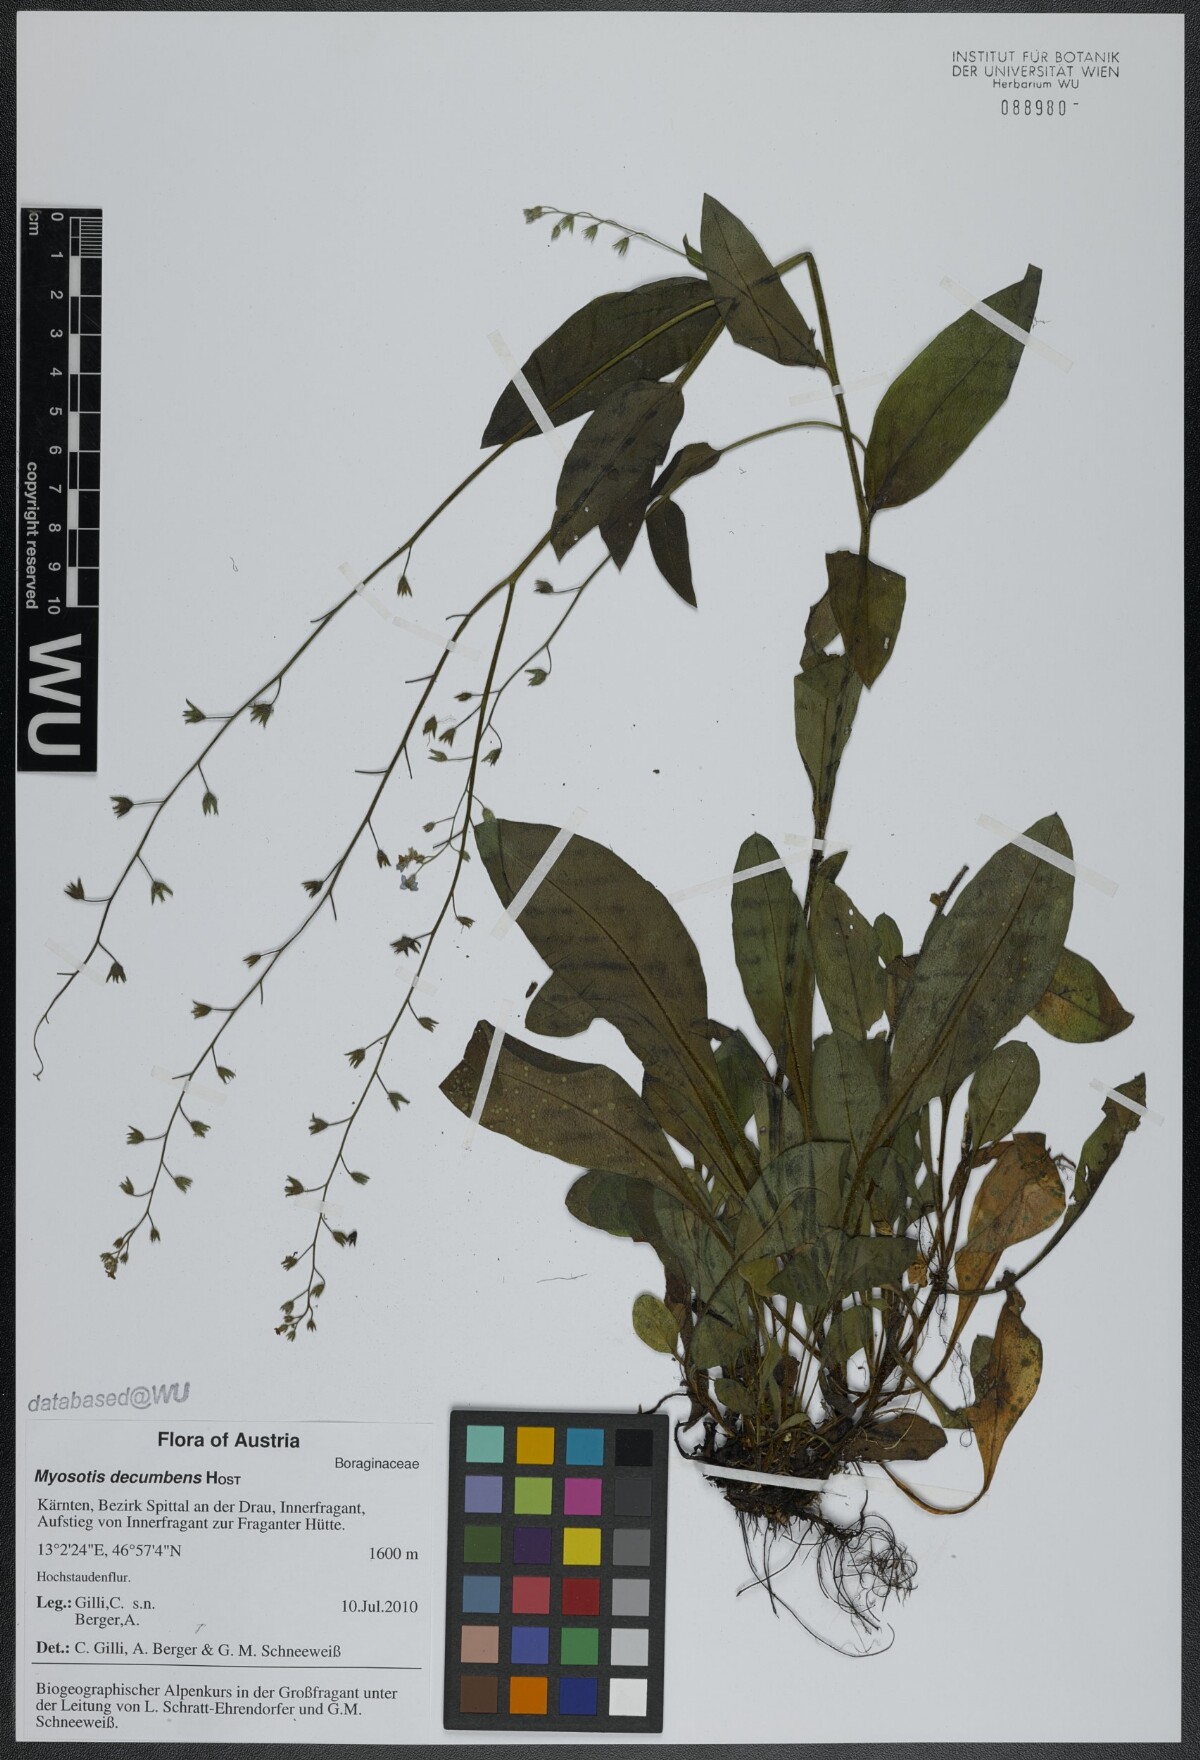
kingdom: Plantae
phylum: Tracheophyta
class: Magnoliopsida
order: Boraginales
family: Boraginaceae
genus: Myosotis
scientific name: Myosotis decumbens
